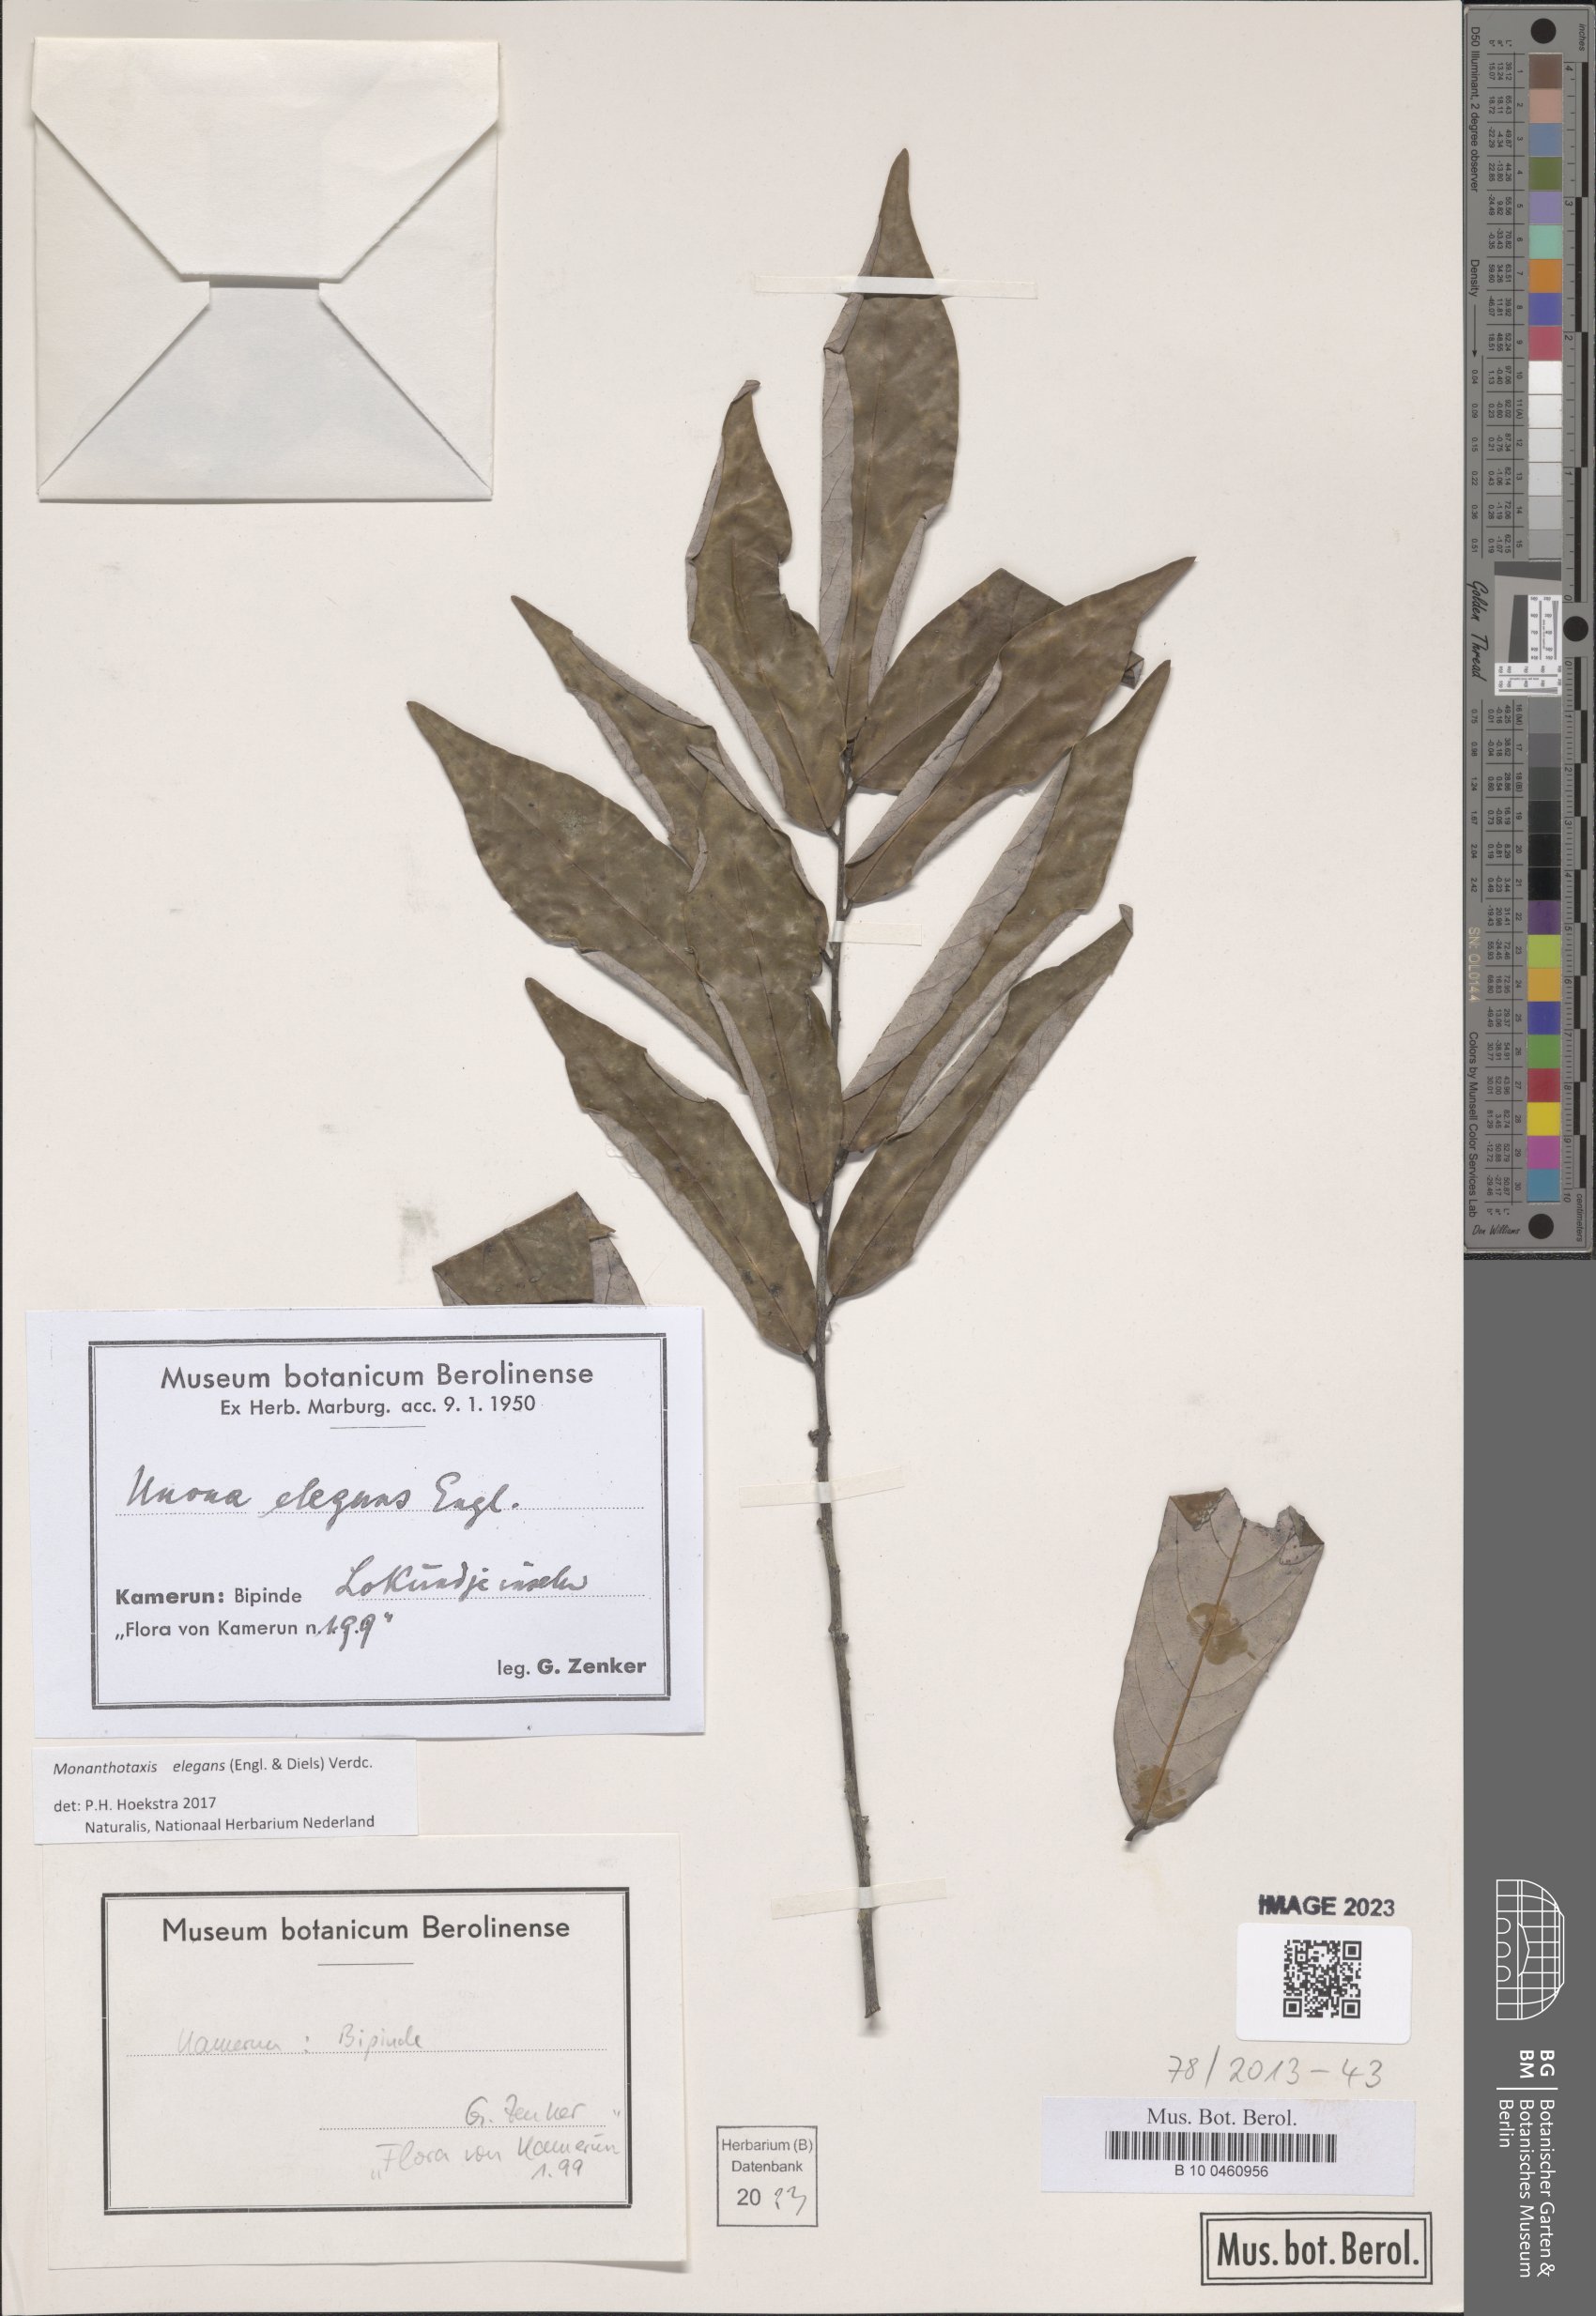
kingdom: Plantae
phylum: Tracheophyta
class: Magnoliopsida
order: Magnoliales
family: Annonaceae
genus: Monanthotaxis
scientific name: Monanthotaxis elegans
